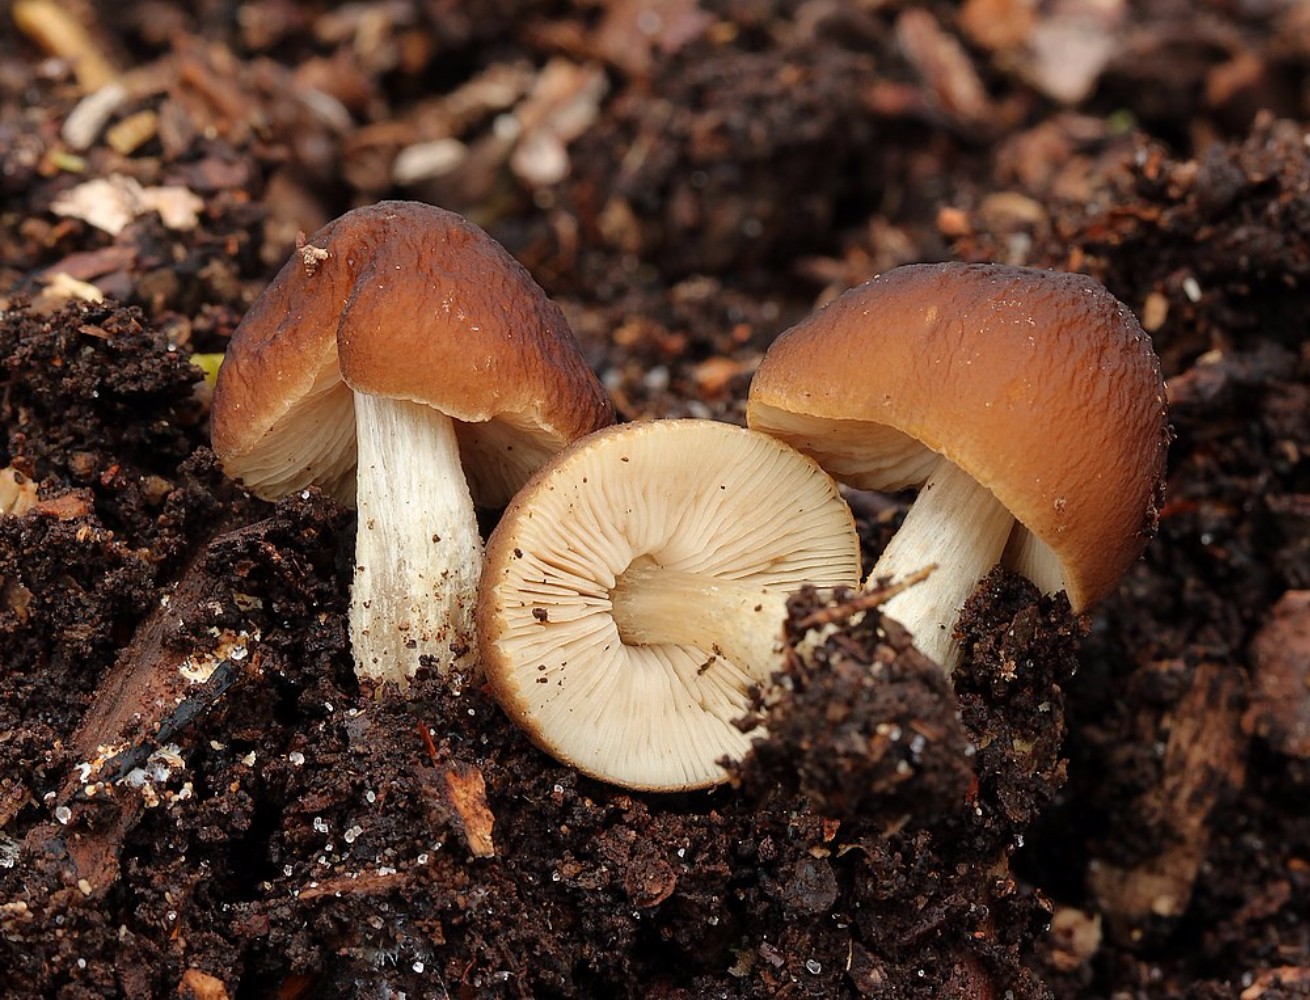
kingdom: Fungi
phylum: Basidiomycota
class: Agaricomycetes
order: Agaricales
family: Pluteaceae
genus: Pluteus
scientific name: Pluteus phlebophorus
